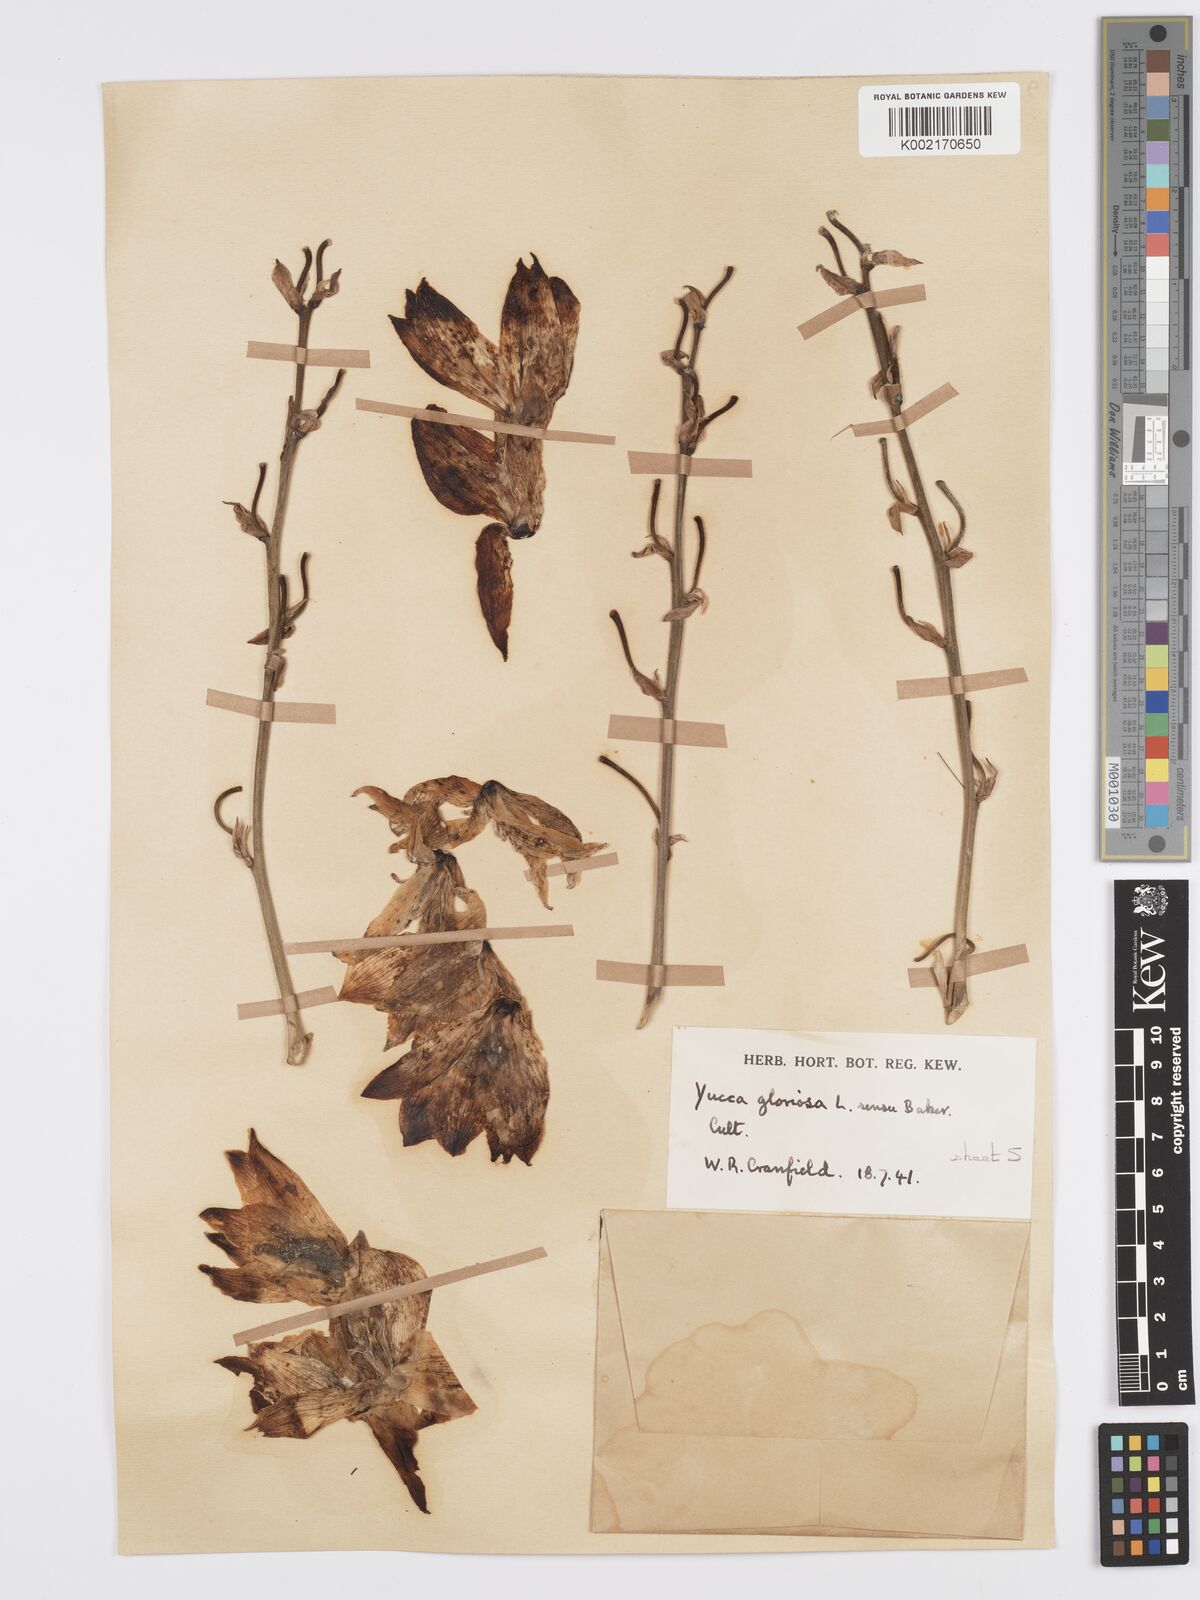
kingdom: Plantae
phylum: Tracheophyta
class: Liliopsida
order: Asparagales
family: Asparagaceae
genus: Yucca
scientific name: Yucca gloriosa
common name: Spanish-dagger
